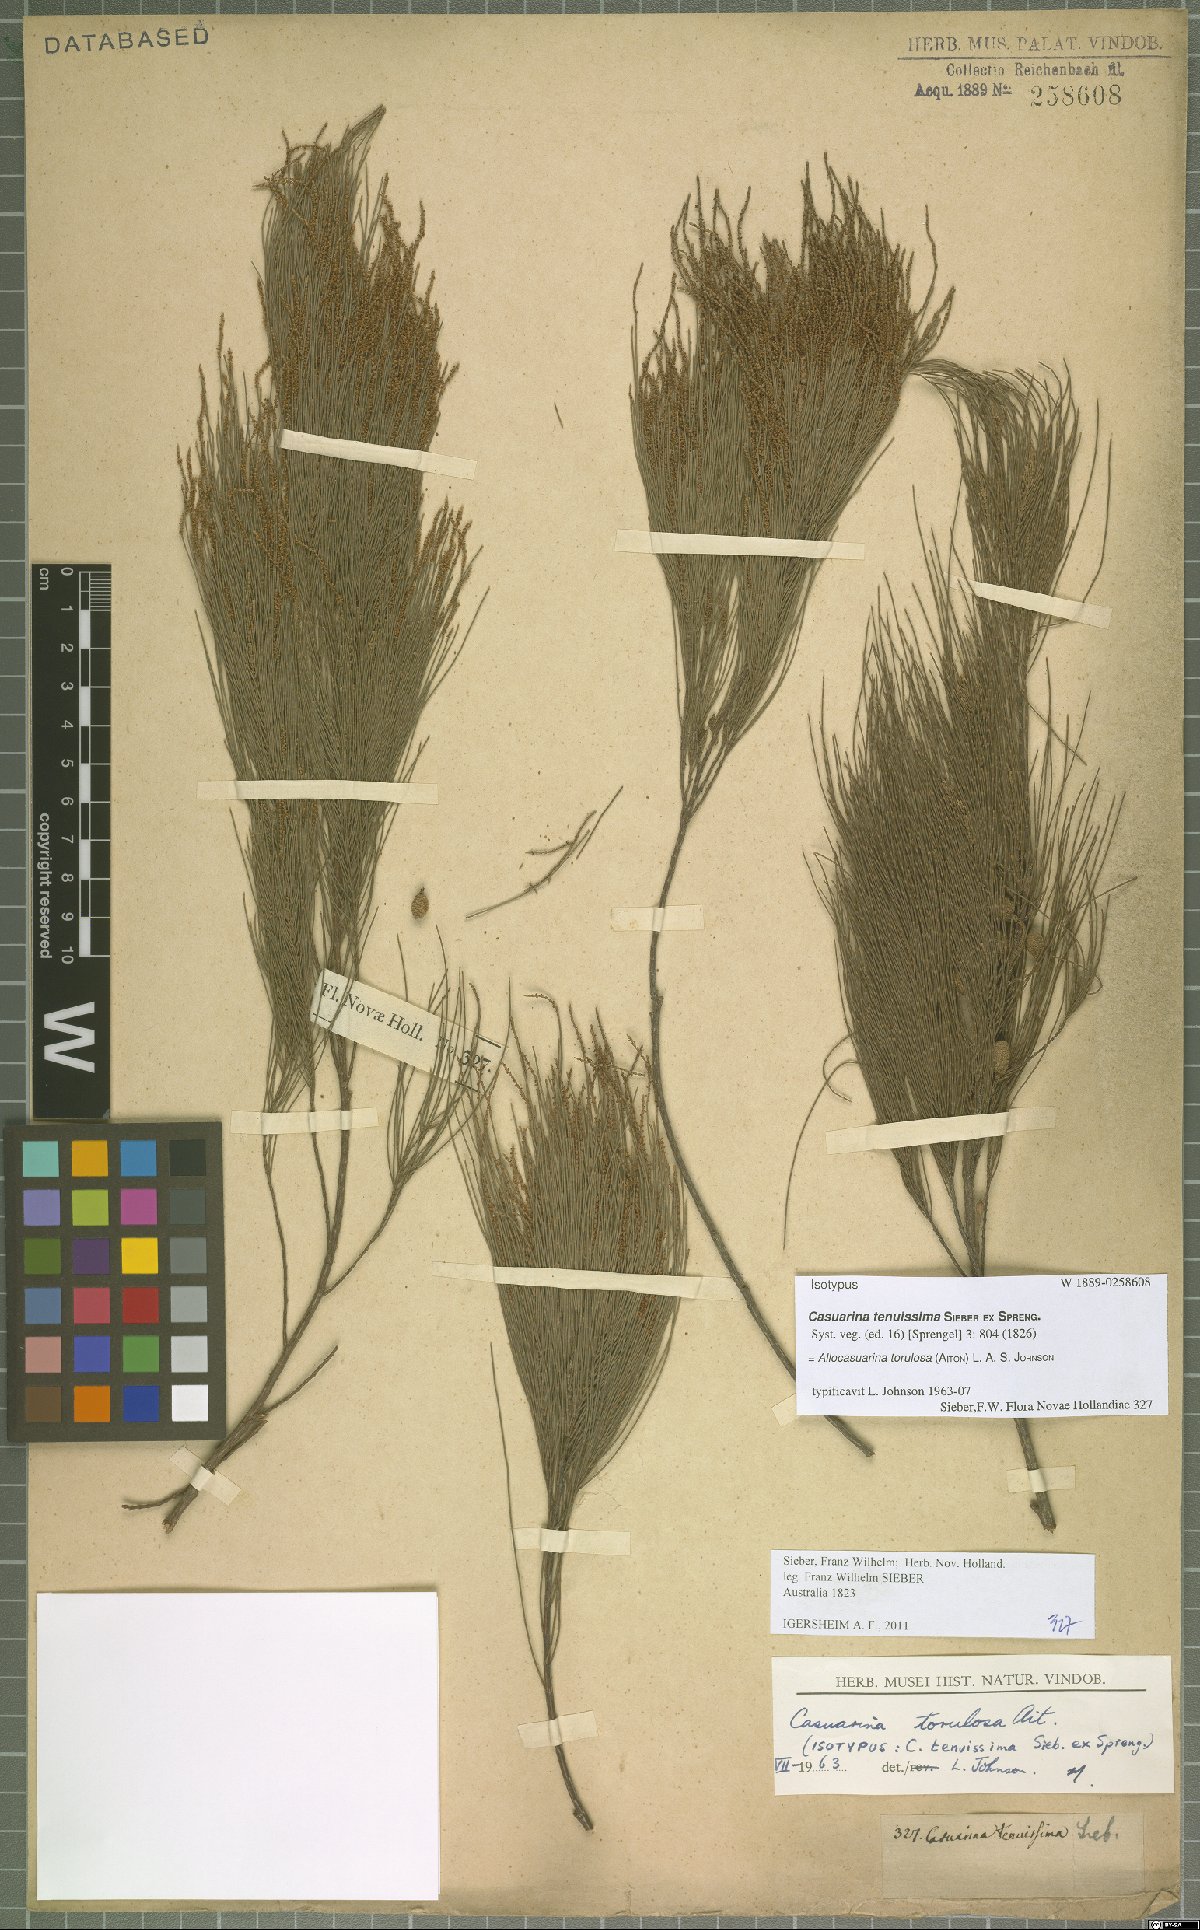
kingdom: Plantae
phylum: Tracheophyta
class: Magnoliopsida
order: Fagales
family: Casuarinaceae
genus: Allocasuarina
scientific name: Allocasuarina torulosa
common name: Forest-oak
